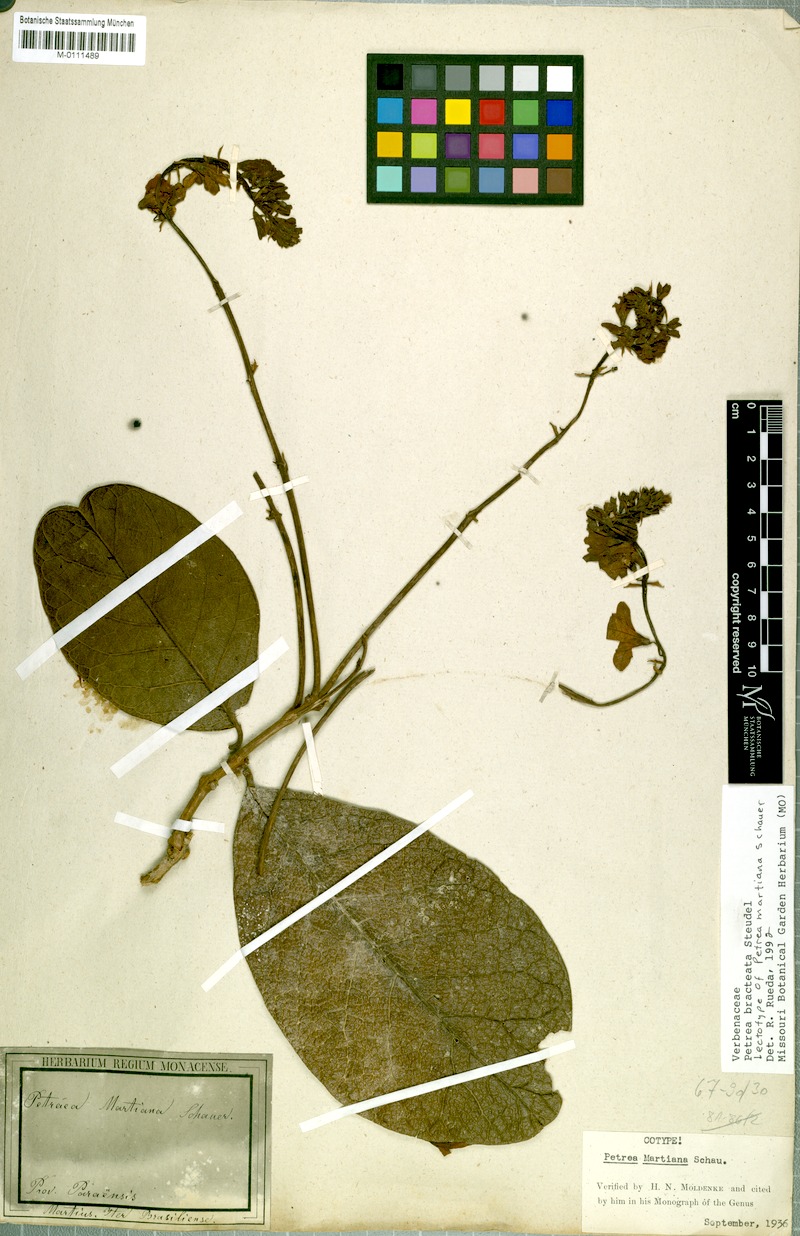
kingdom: Plantae
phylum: Tracheophyta
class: Magnoliopsida
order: Lamiales
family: Verbenaceae
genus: Petrea
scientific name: Petrea bracteata
